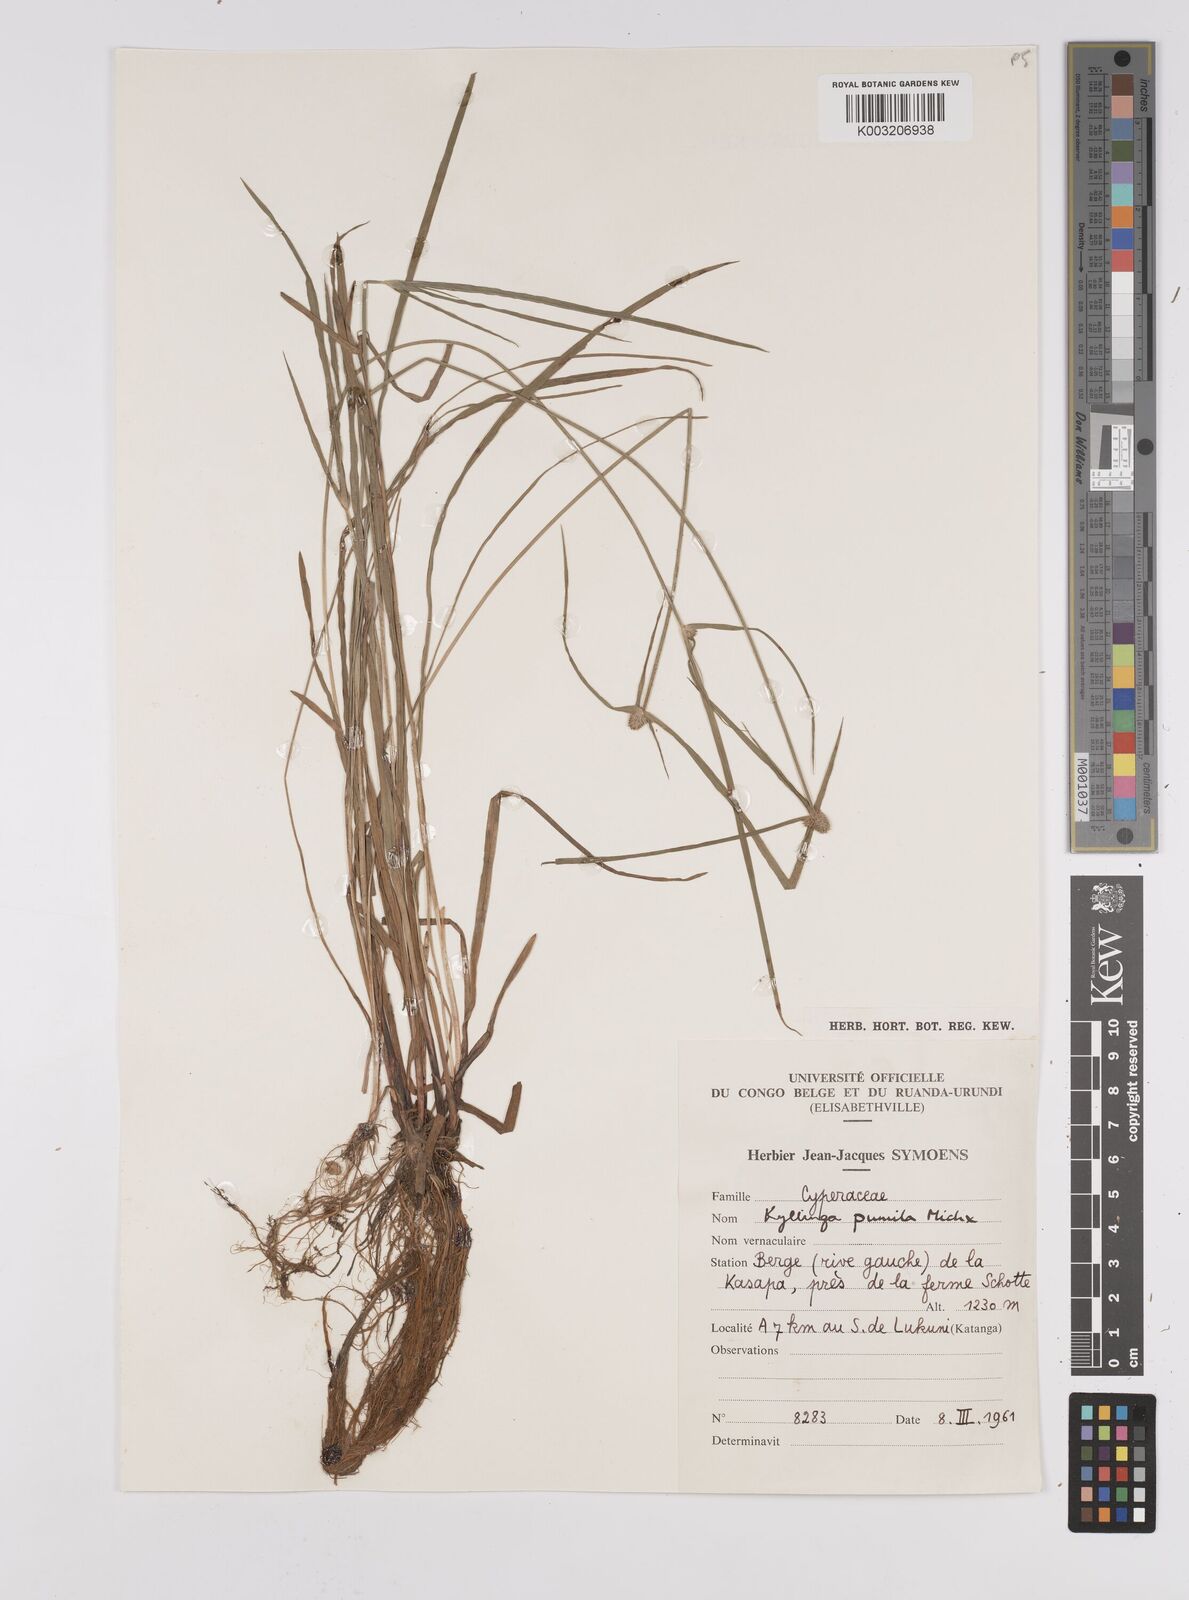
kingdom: Plantae
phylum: Tracheophyta
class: Liliopsida
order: Poales
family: Cyperaceae
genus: Cyperus
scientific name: Cyperus hortensis
